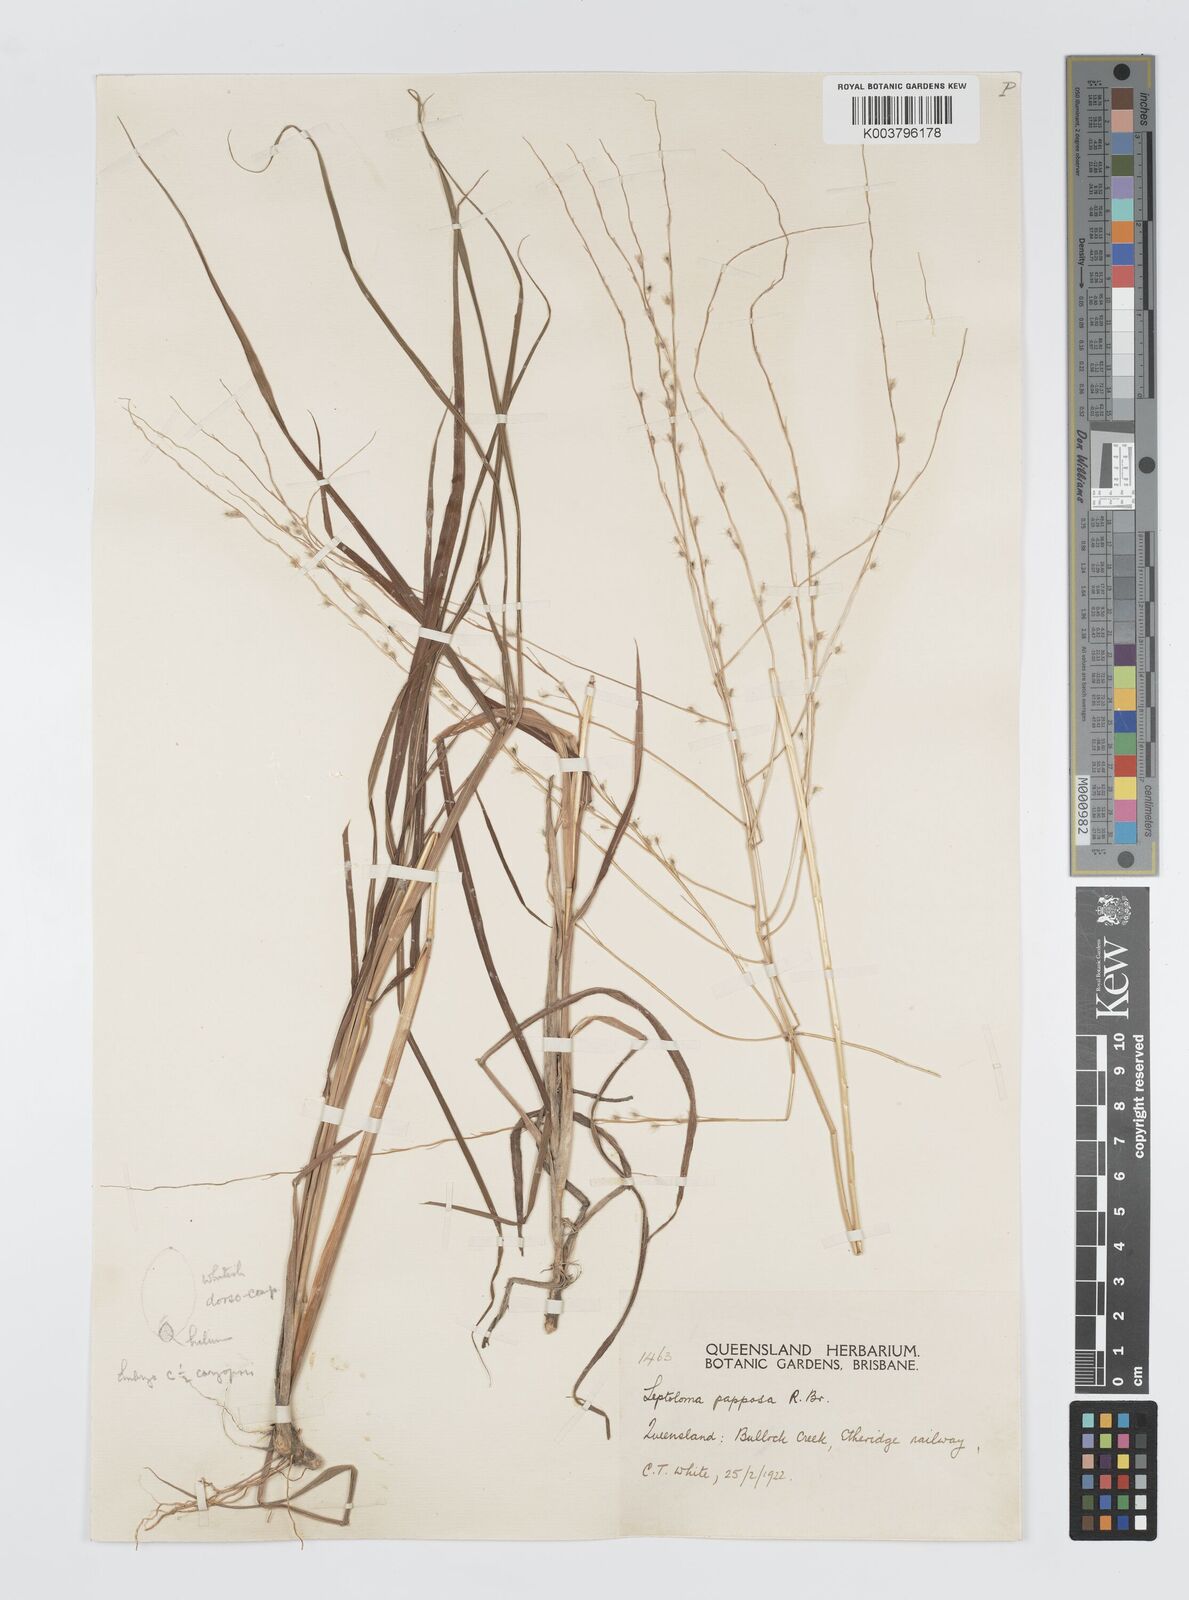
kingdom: Plantae
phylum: Tracheophyta
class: Liliopsida
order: Poales
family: Poaceae
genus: Digitaria
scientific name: Digitaria papposa
